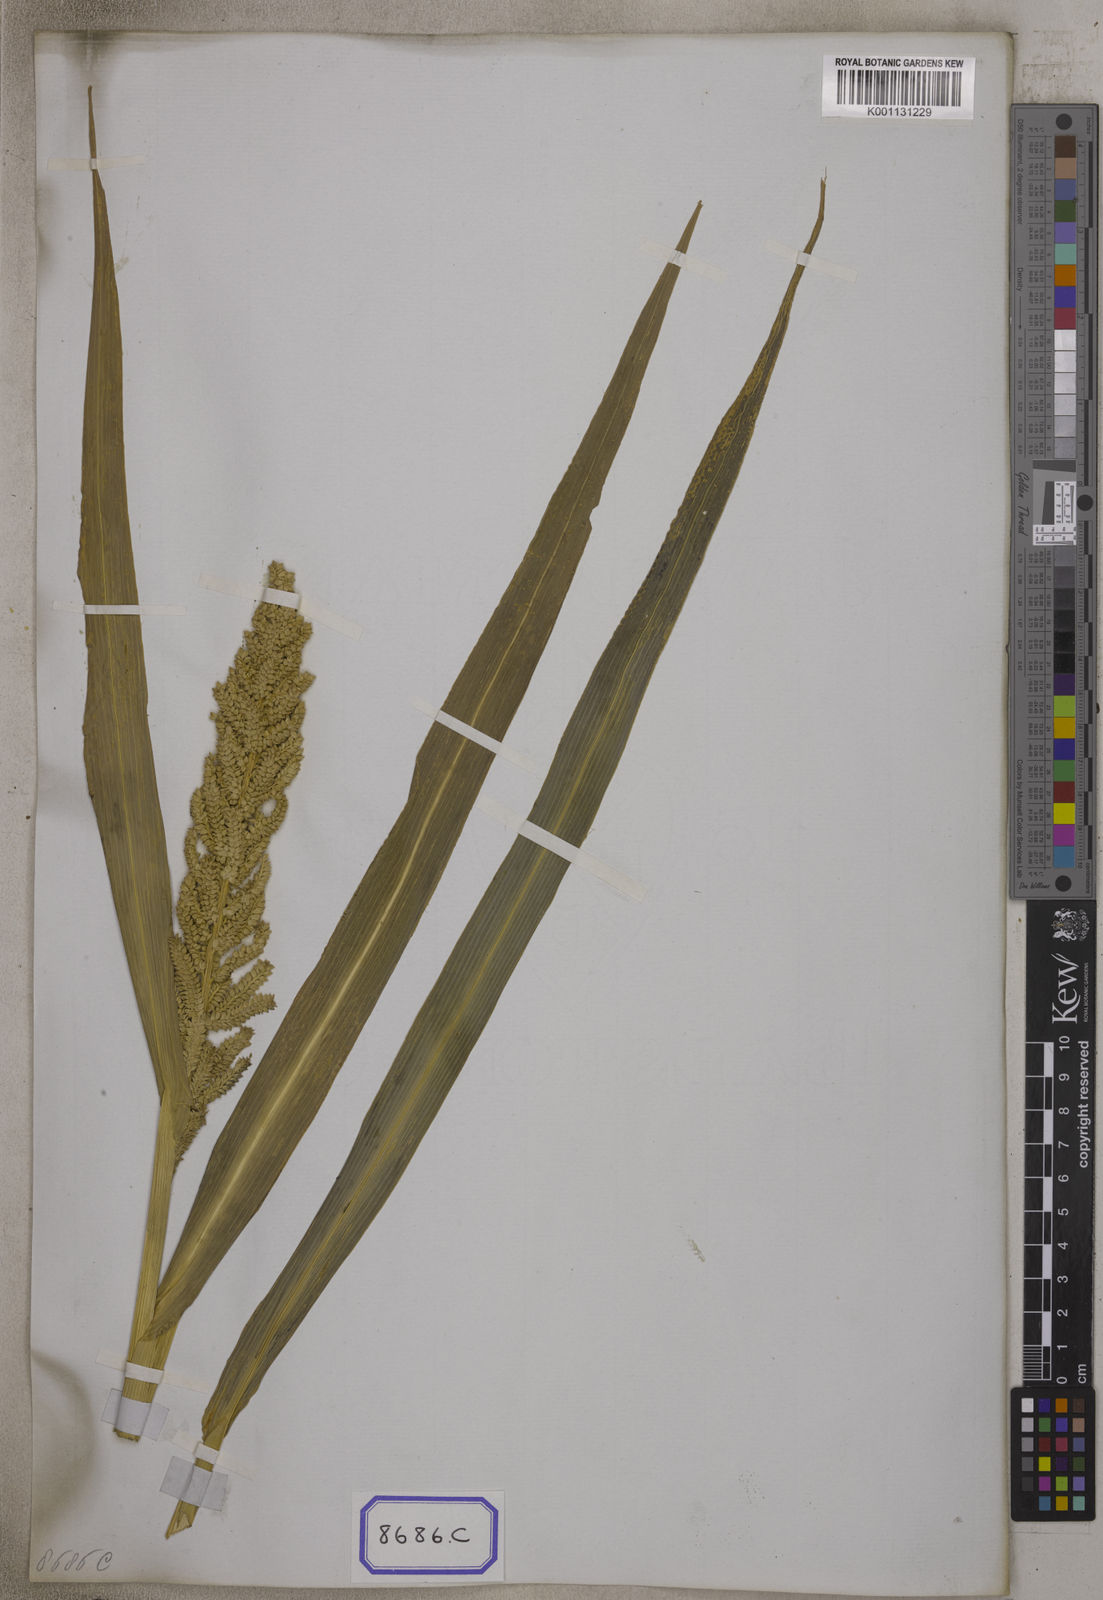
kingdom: Plantae
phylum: Tracheophyta
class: Liliopsida
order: Poales
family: Poaceae
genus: Panicum
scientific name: Panicum
